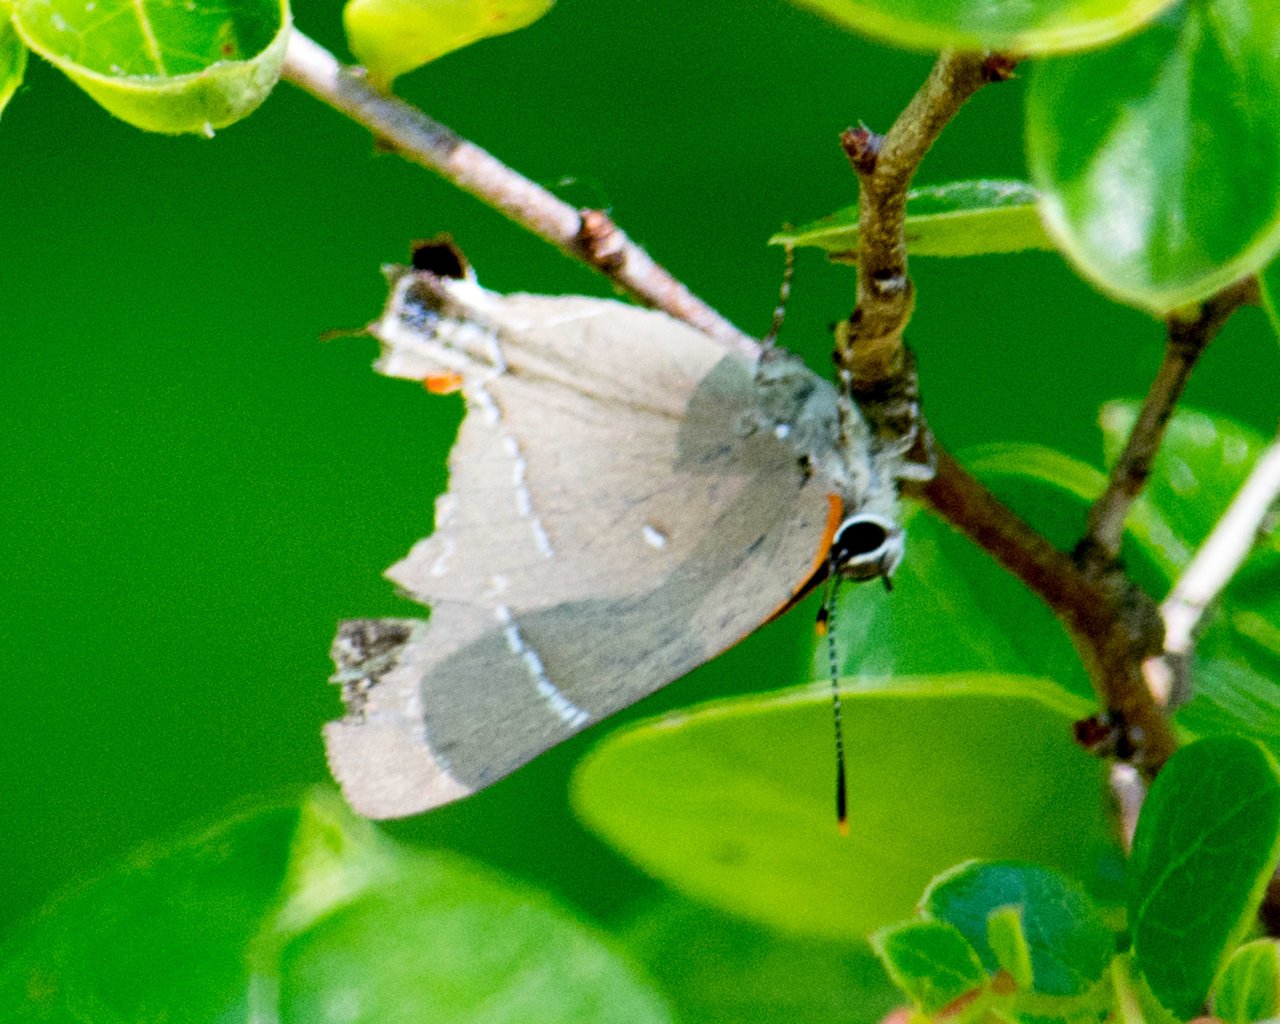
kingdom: Animalia
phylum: Arthropoda
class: Insecta
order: Lepidoptera
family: Lycaenidae
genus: Parrhasius
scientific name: Parrhasius m-album
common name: White-m Hairstreak
